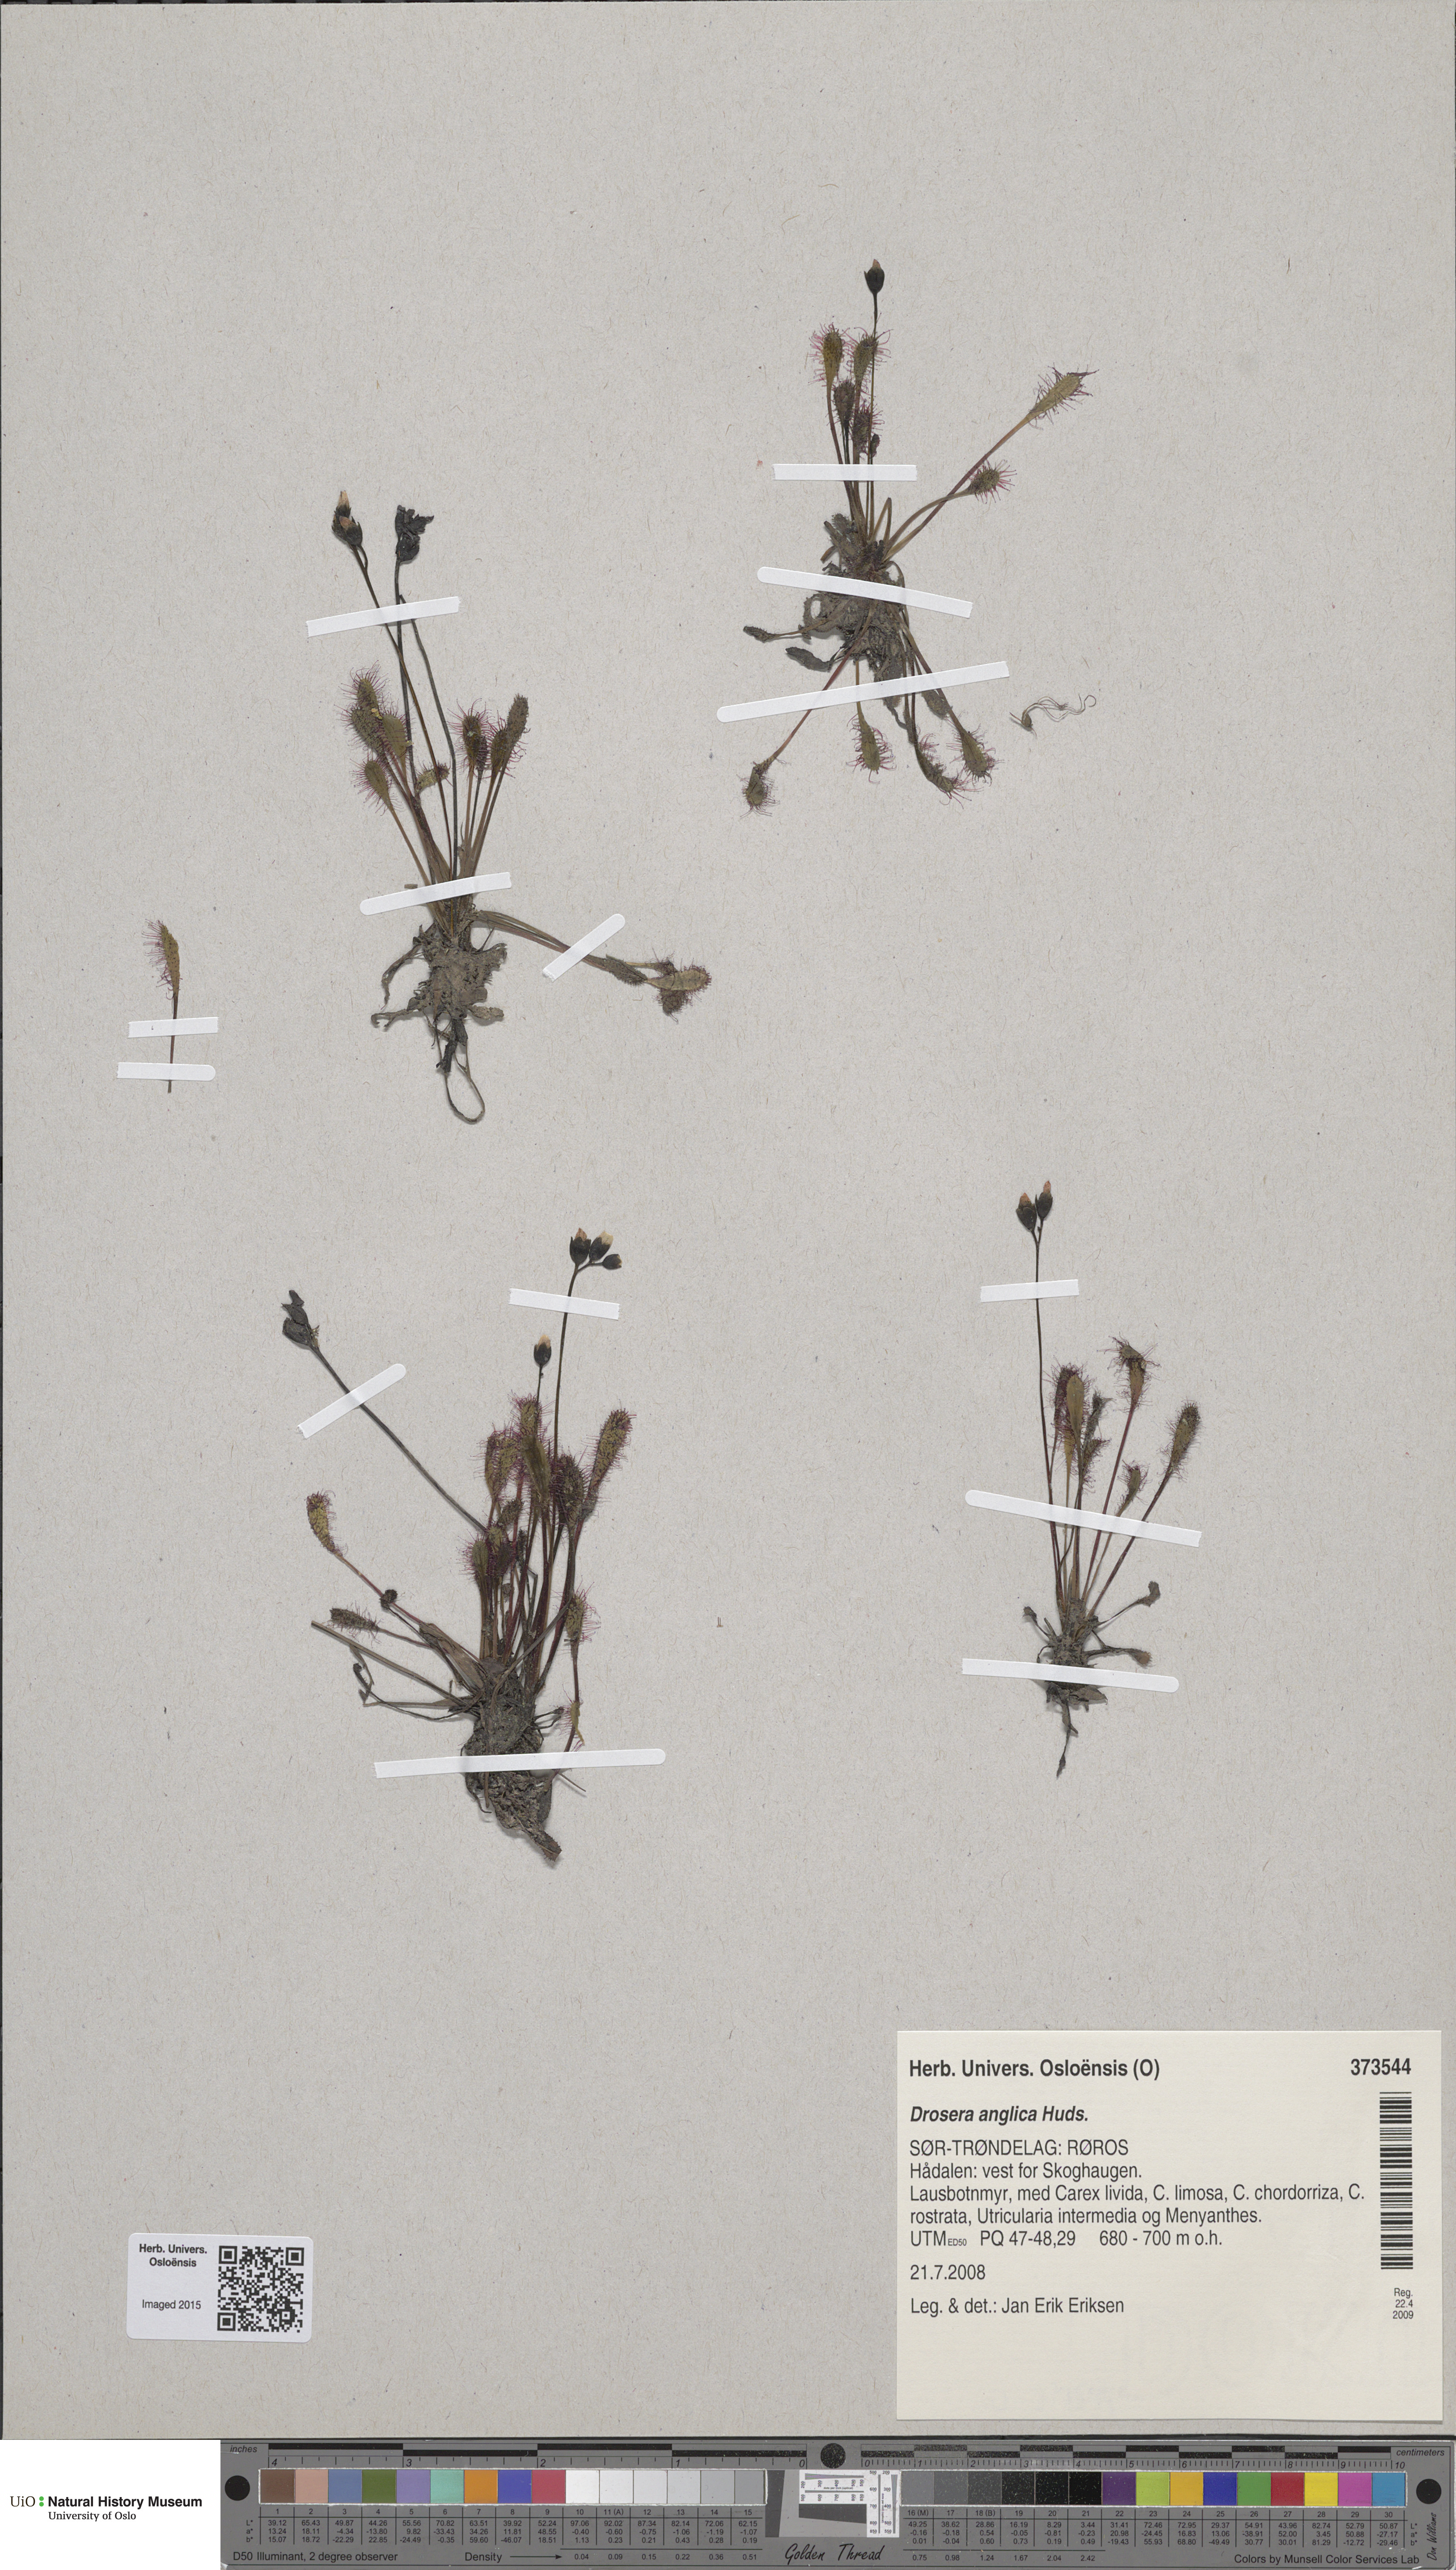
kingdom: Plantae
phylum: Tracheophyta
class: Magnoliopsida
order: Caryophyllales
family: Droseraceae
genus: Drosera
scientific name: Drosera anglica
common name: Great sundew
